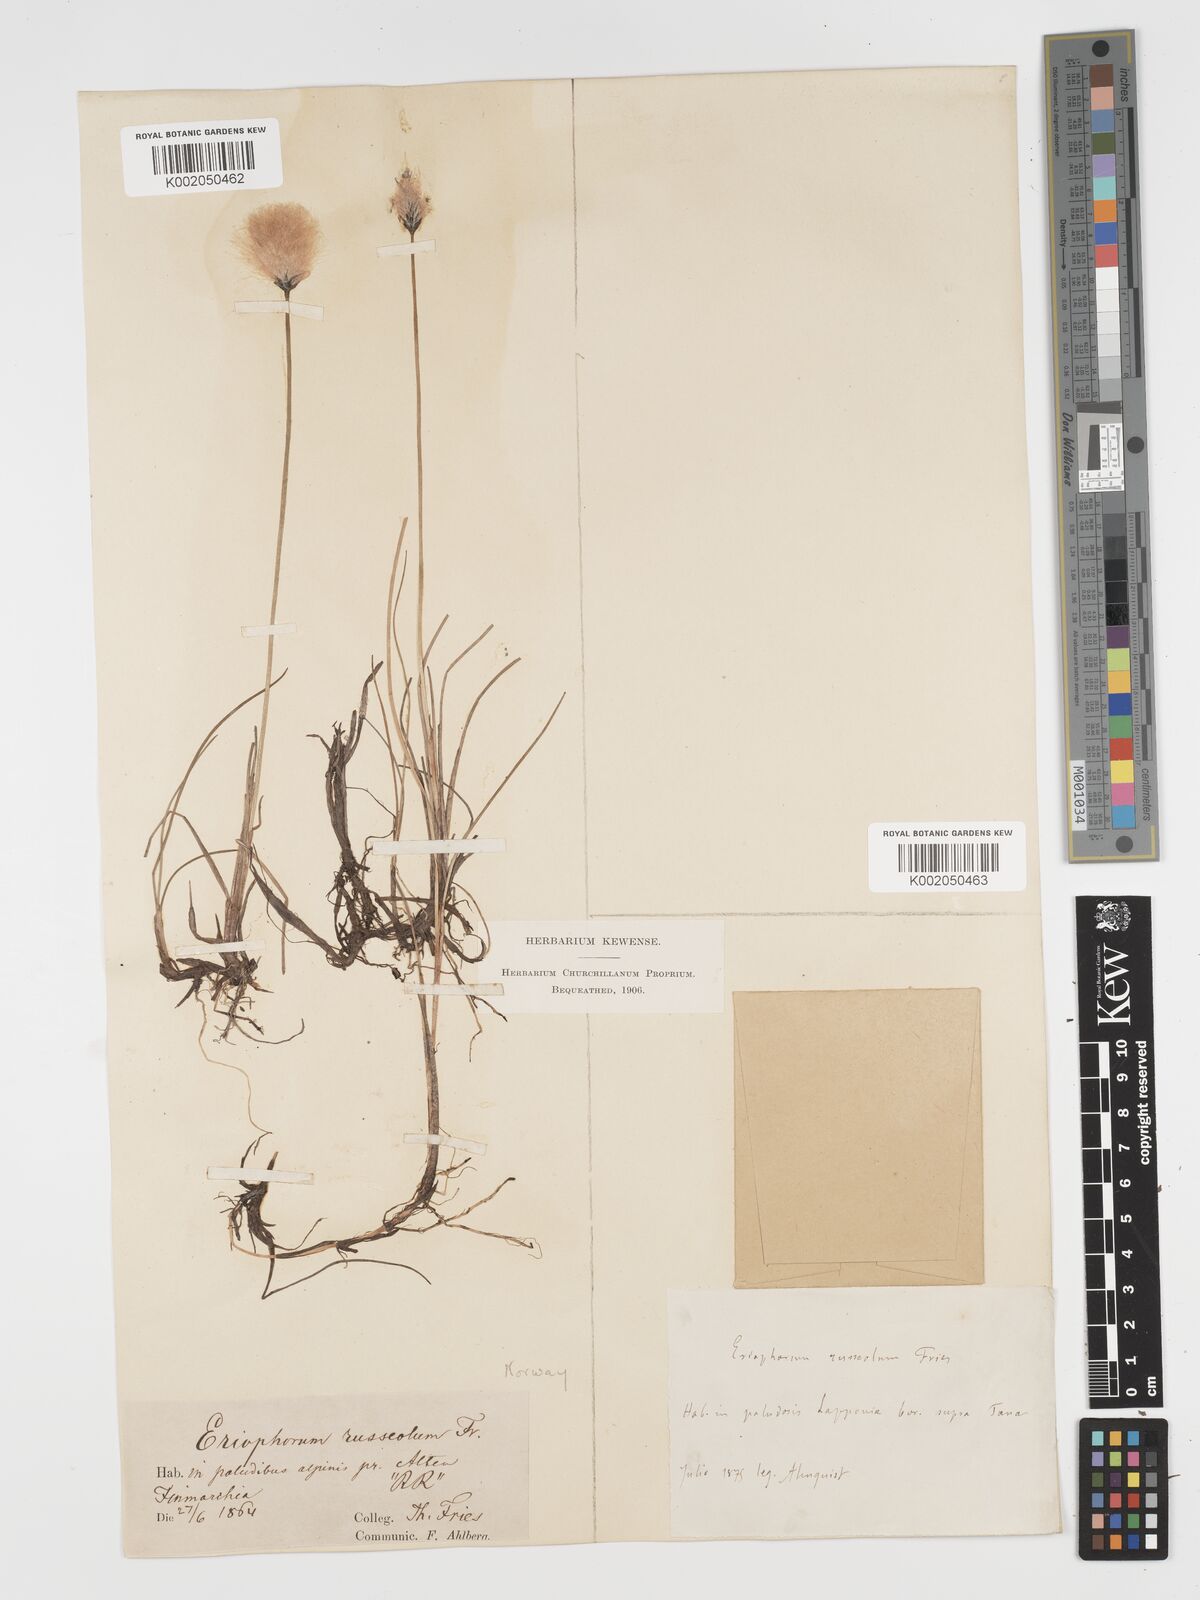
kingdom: Plantae
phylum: Tracheophyta
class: Liliopsida
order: Poales
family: Cyperaceae
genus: Eriophorum
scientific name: Eriophorum scheuchzeri
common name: Scheuchzer's cottongrass
